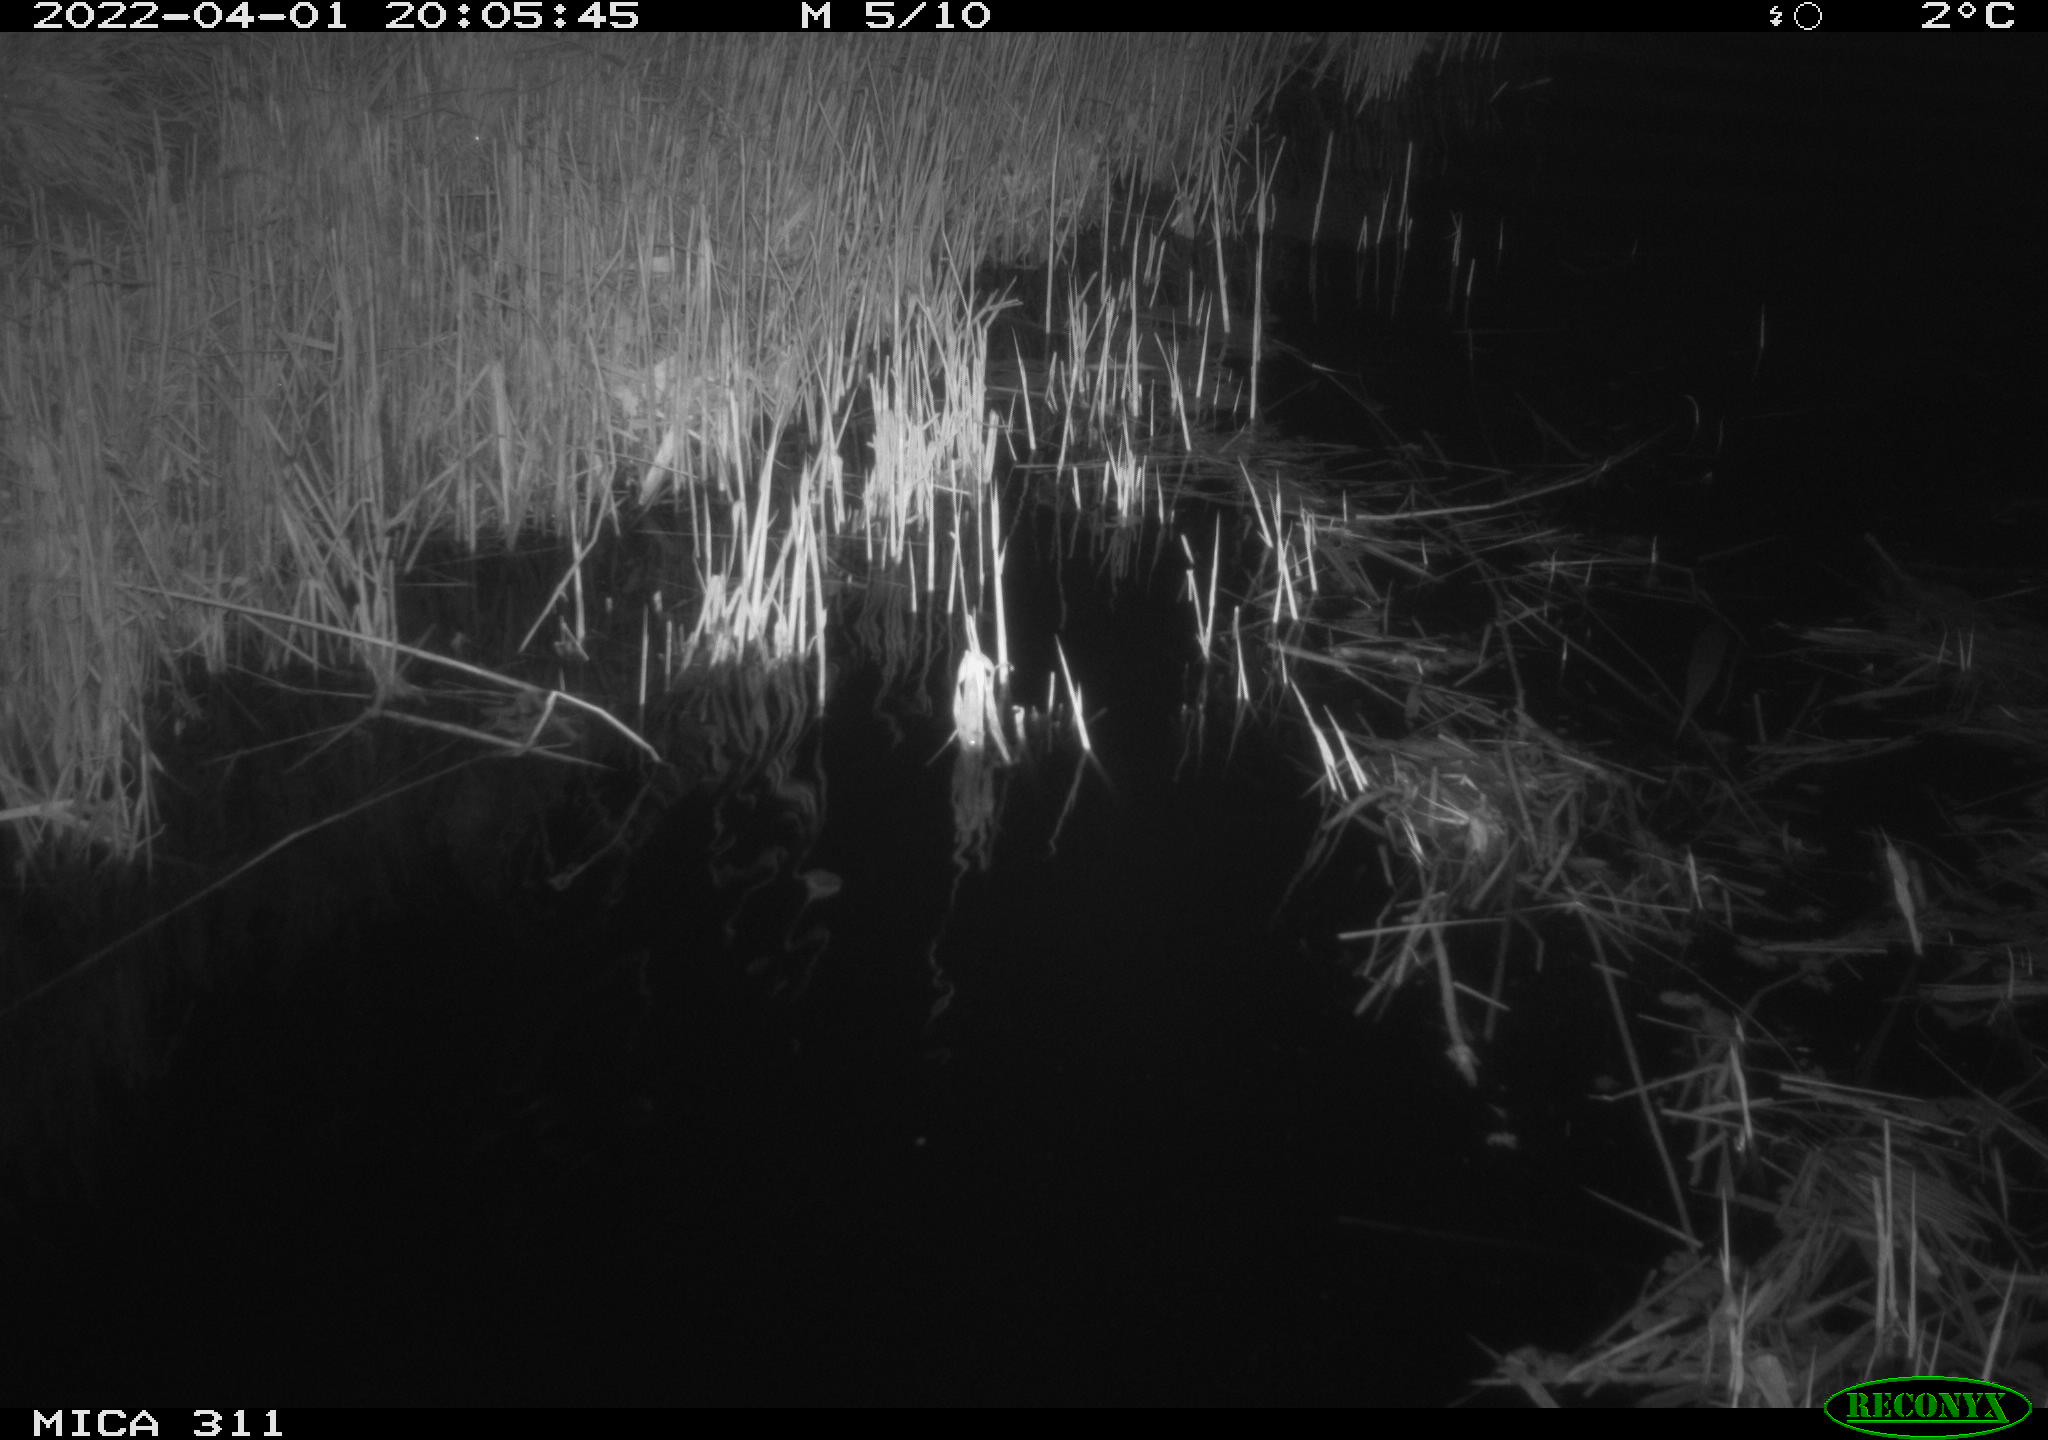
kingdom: Animalia
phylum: Chordata
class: Aves
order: Anseriformes
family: Anatidae
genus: Anas
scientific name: Anas platyrhynchos
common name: Mallard
